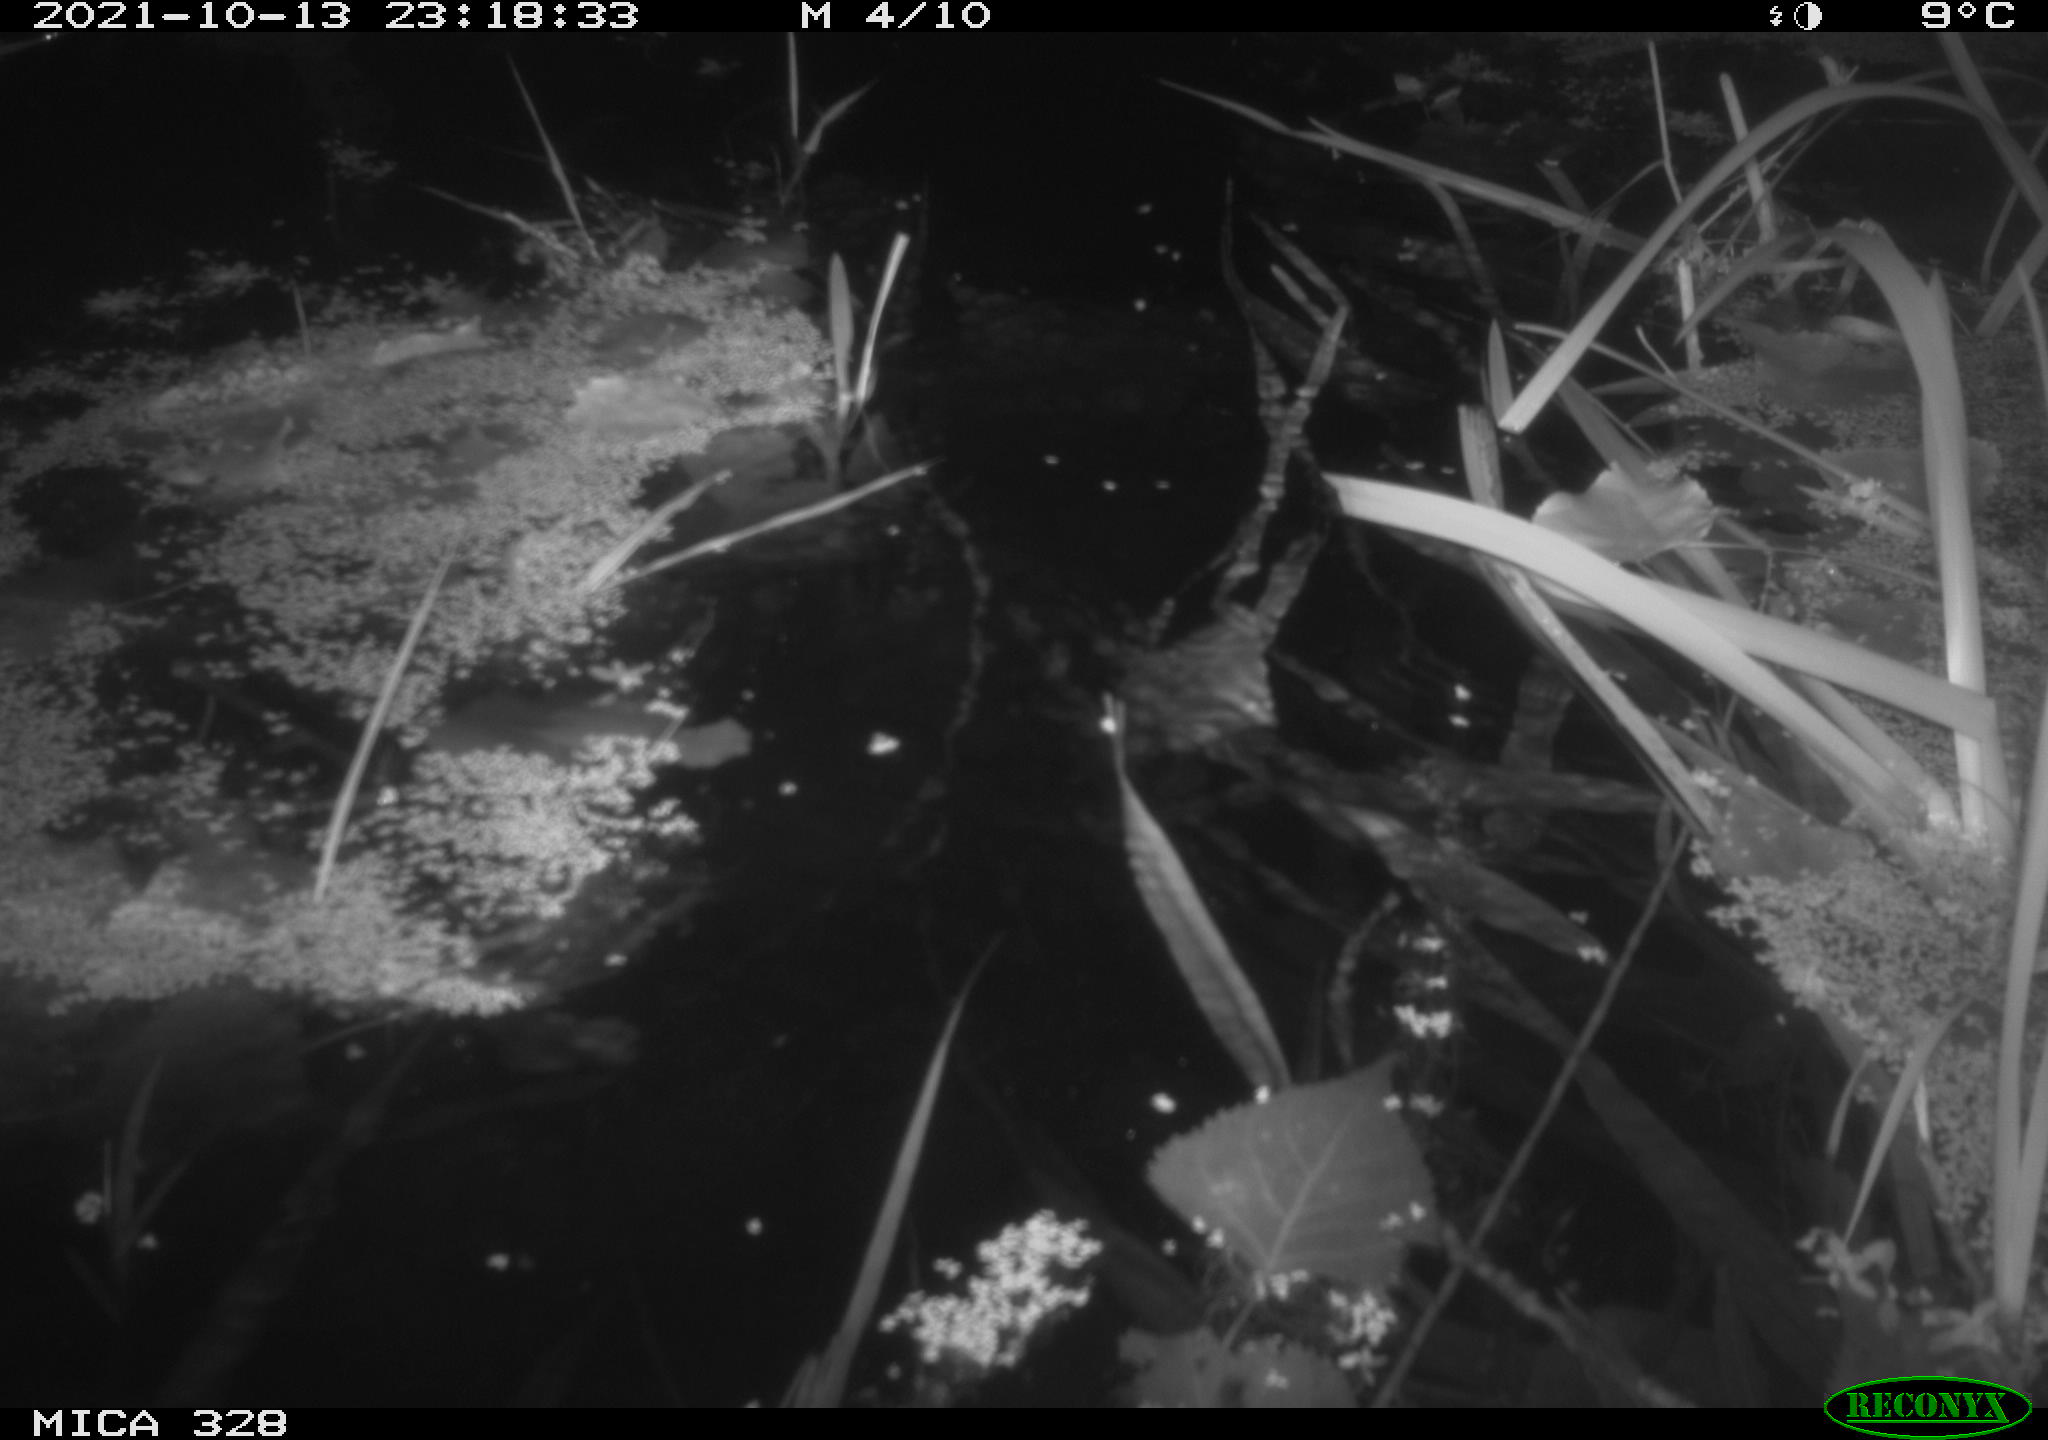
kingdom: Animalia
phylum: Chordata
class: Mammalia
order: Rodentia
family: Cricetidae
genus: Ondatra
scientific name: Ondatra zibethicus
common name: Muskrat
